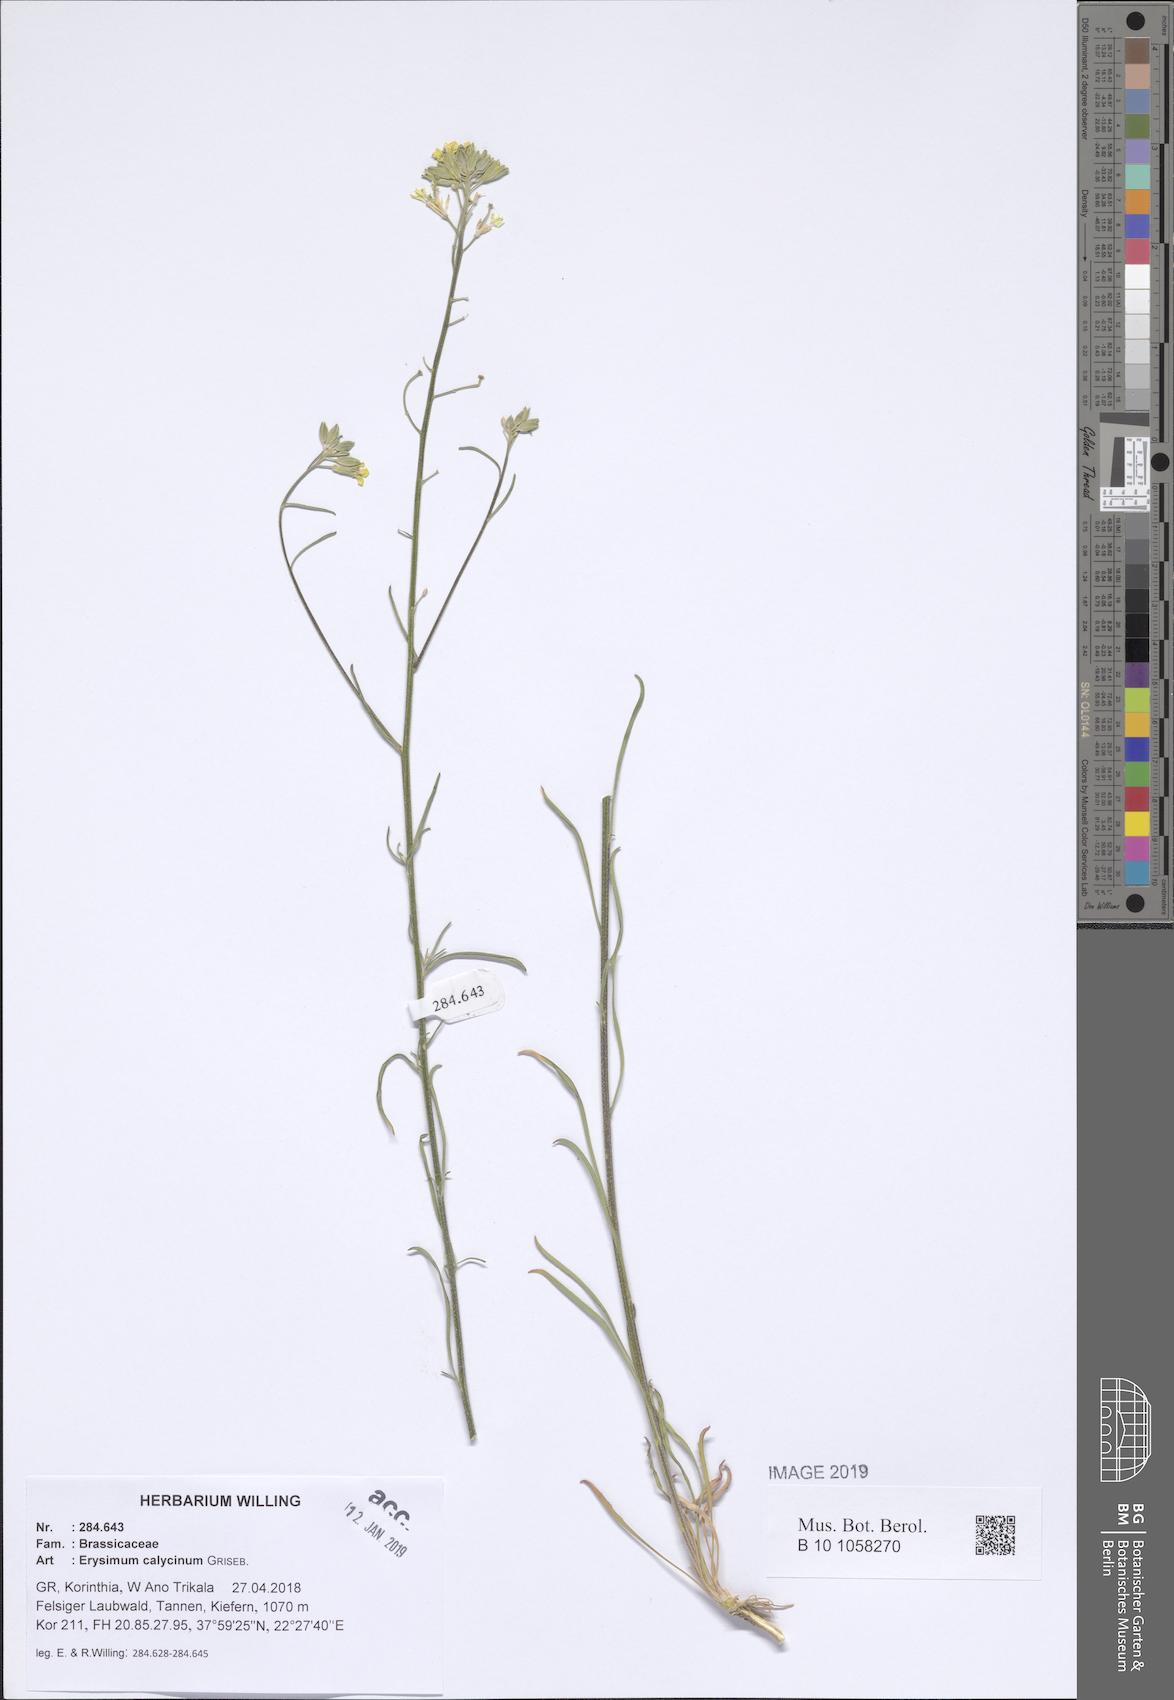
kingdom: Plantae
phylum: Tracheophyta
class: Magnoliopsida
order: Brassicales
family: Brassicaceae
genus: Erysimum
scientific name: Erysimum calycinum
